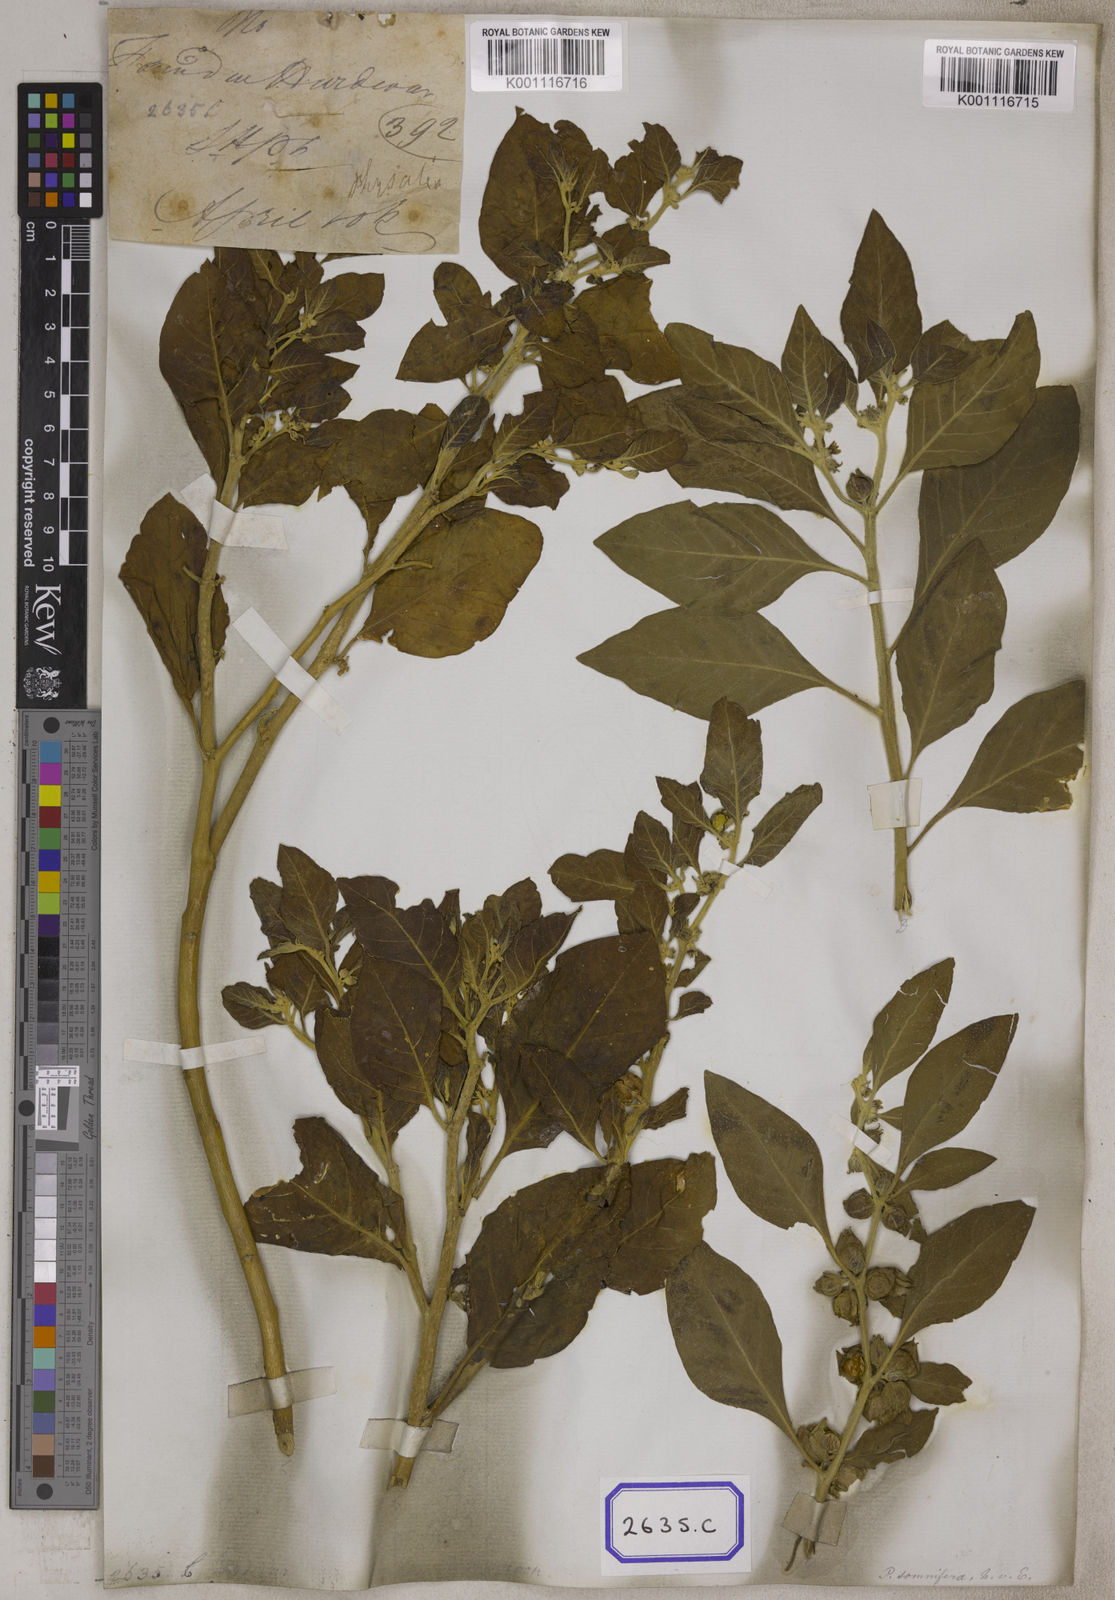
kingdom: Plantae
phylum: Tracheophyta
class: Magnoliopsida
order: Solanales
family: Solanaceae
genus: Withania
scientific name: Withania somnifera
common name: Winter-cherry
